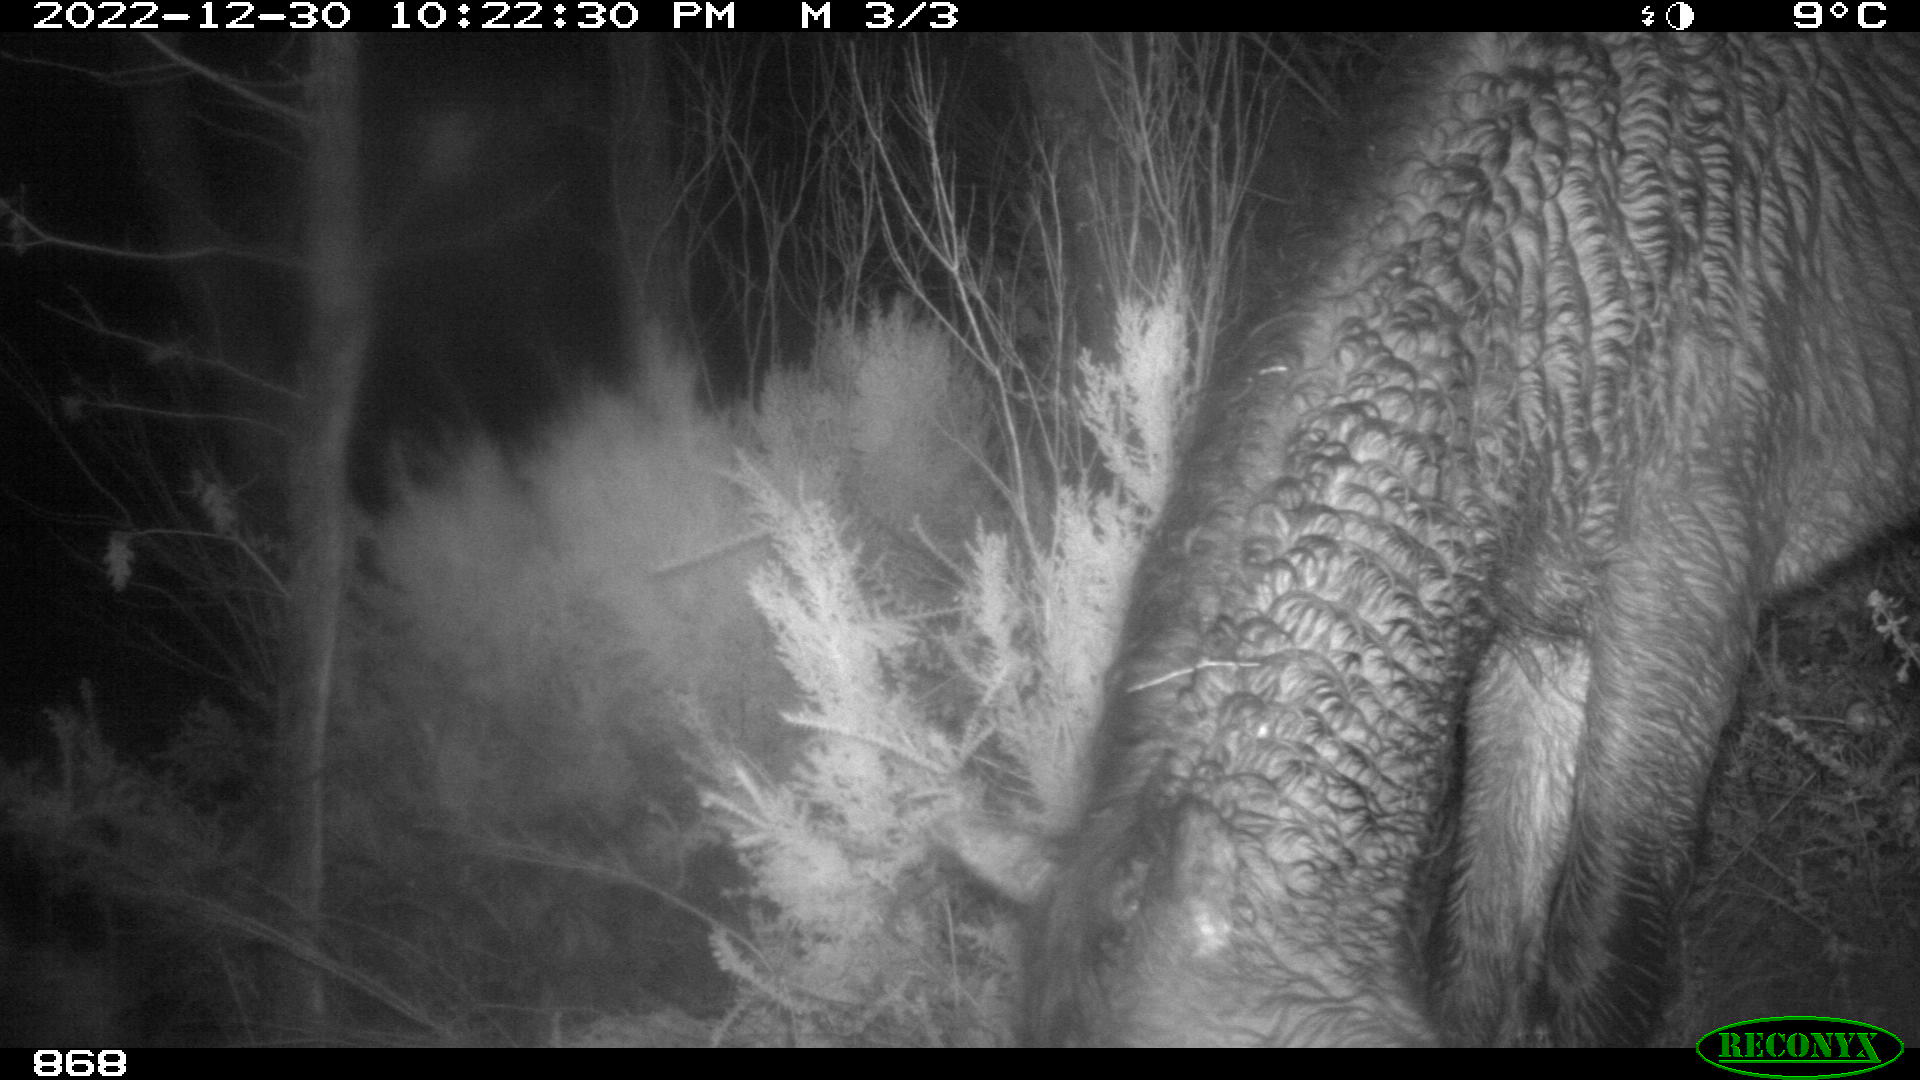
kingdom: Animalia
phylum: Chordata
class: Mammalia
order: Perissodactyla
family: Equidae
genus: Equus
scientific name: Equus caballus
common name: Horse
